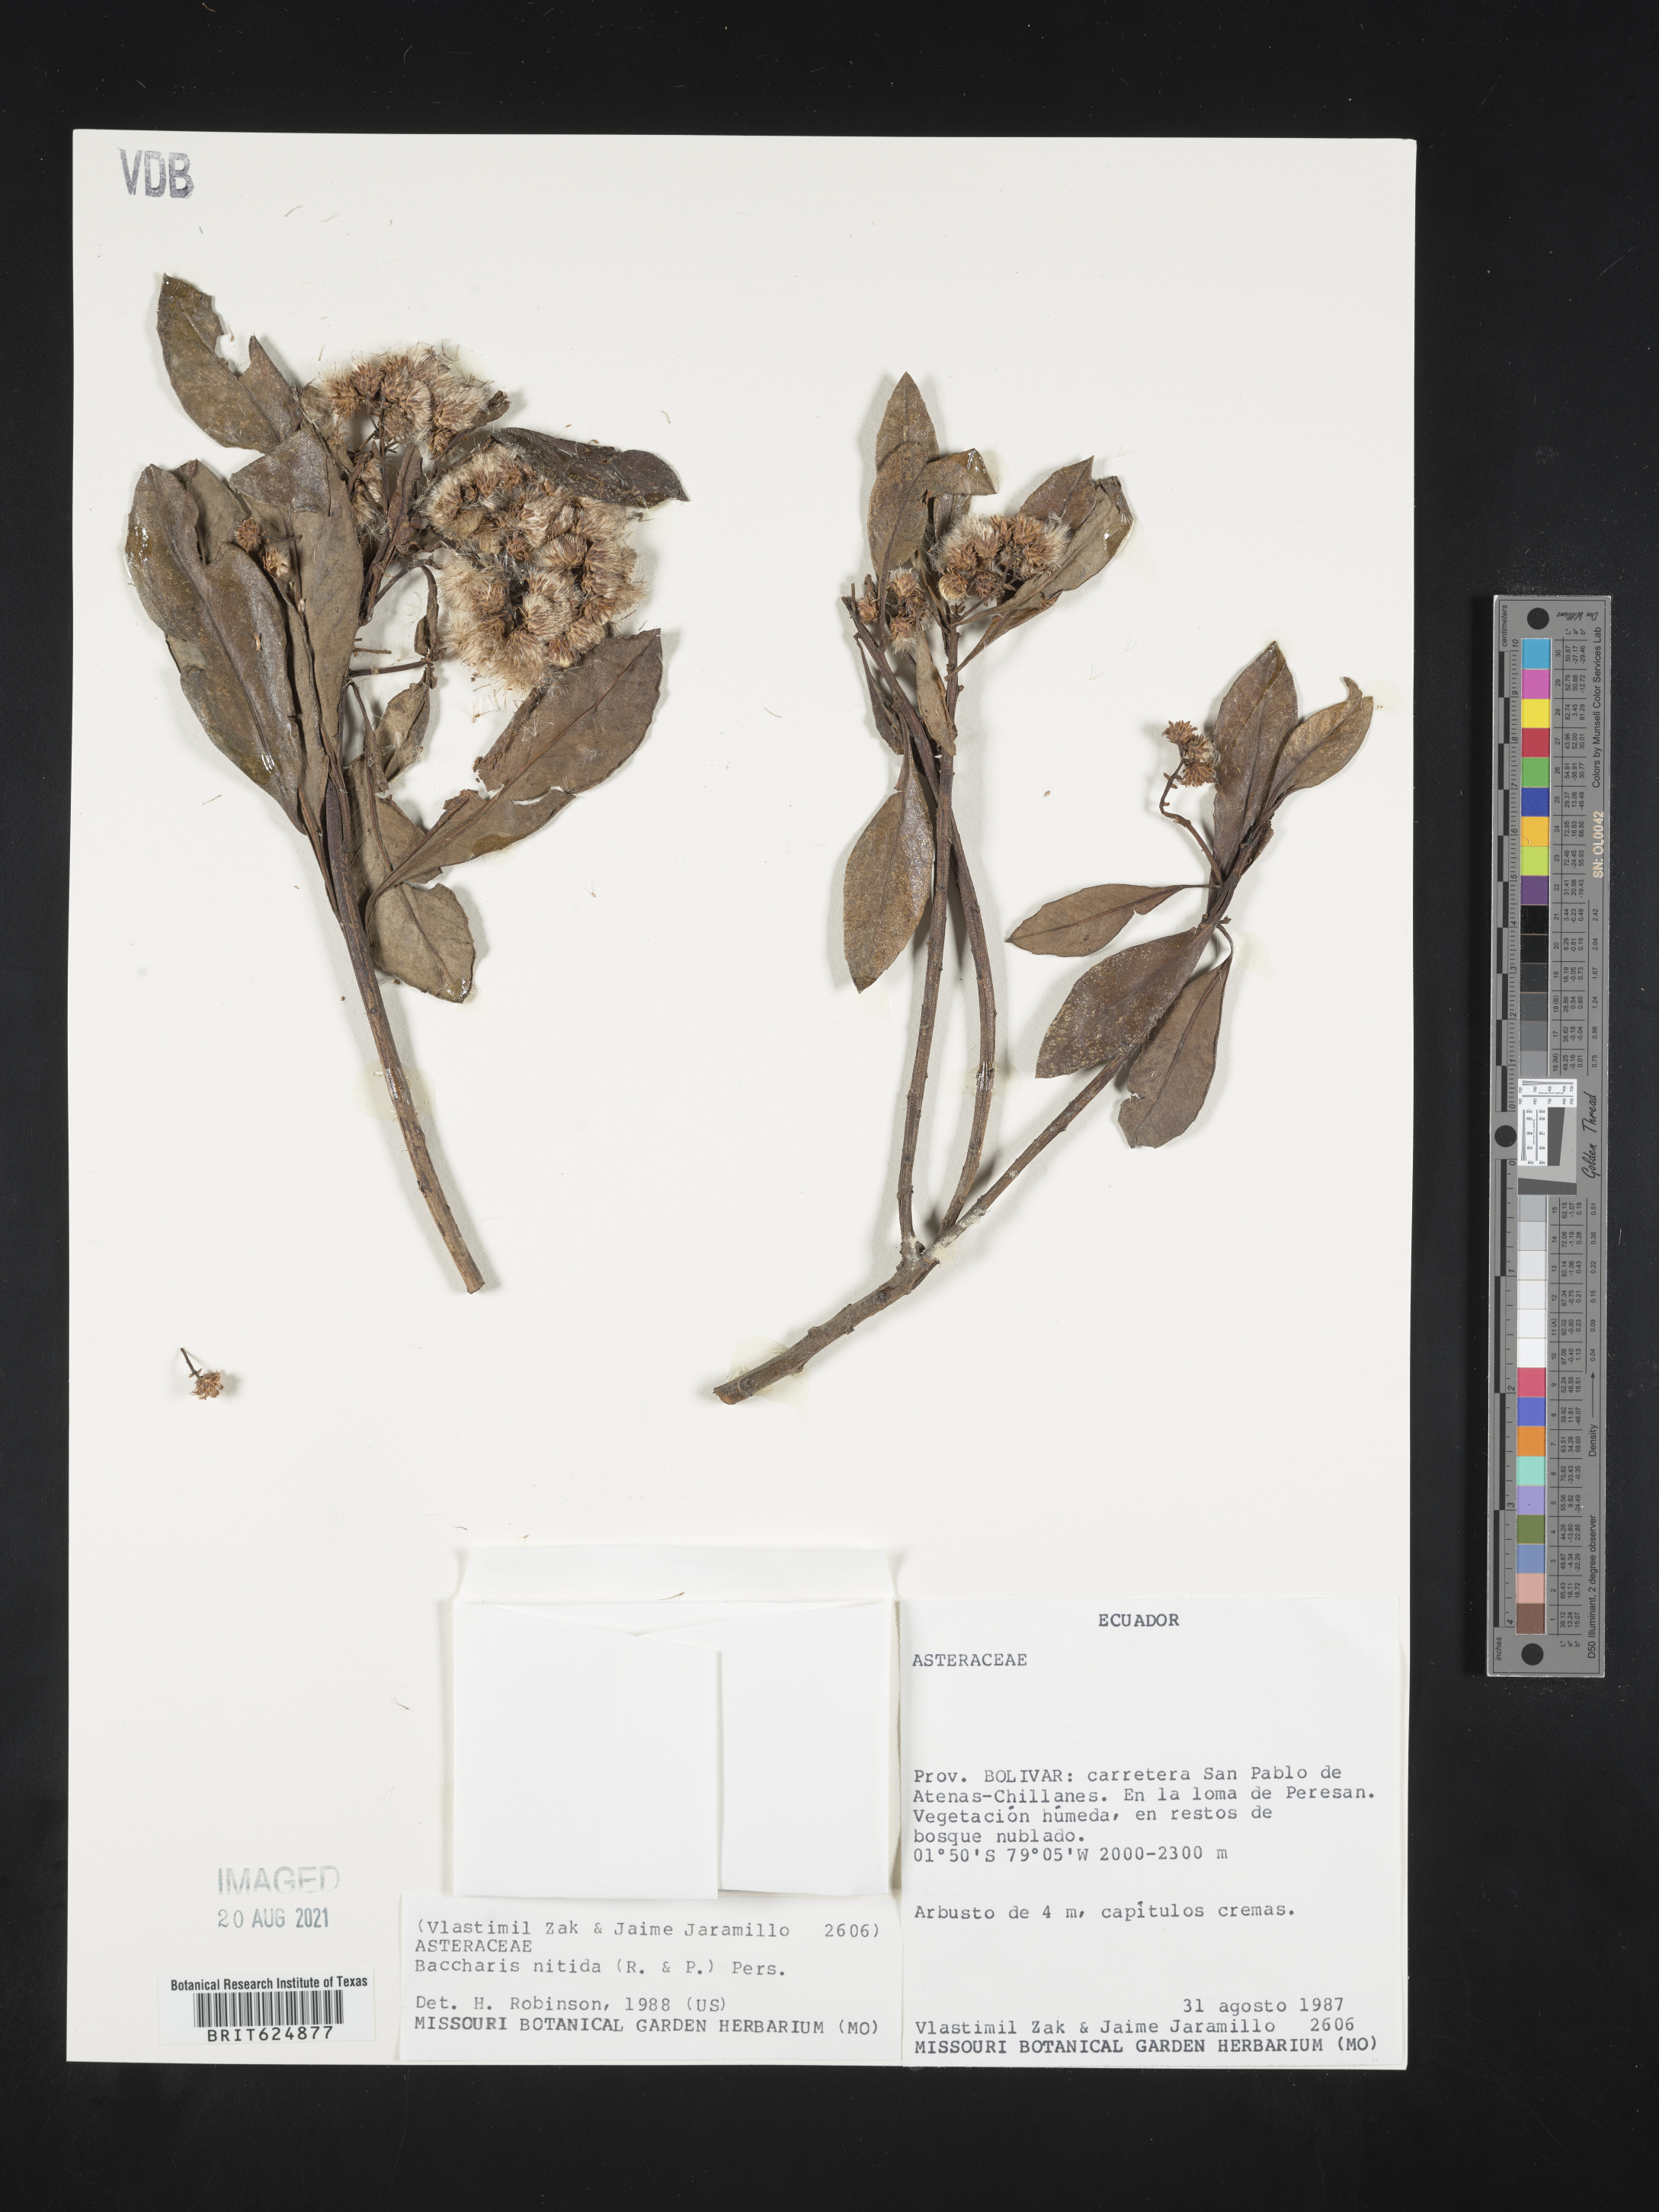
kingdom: Plantae
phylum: Tracheophyta
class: Magnoliopsida
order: Asterales
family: Asteraceae
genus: Baccharis
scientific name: Baccharis nitida
